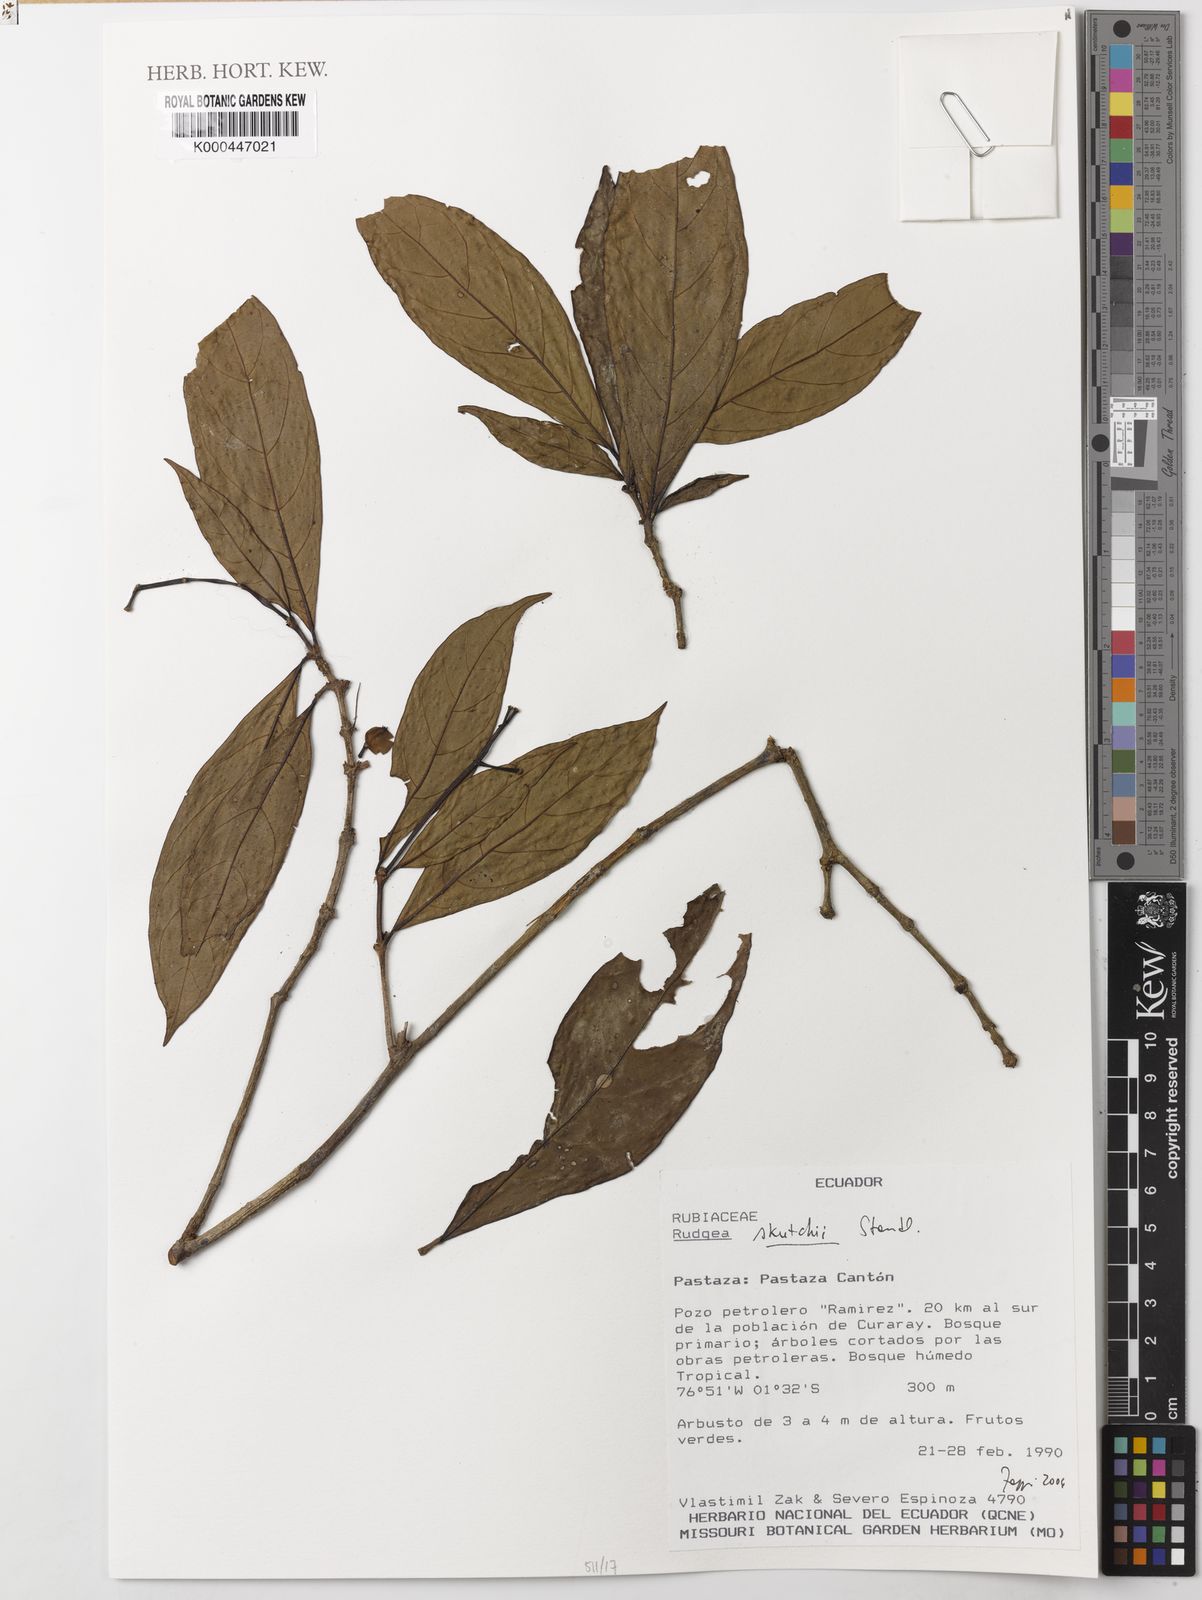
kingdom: Plantae
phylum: Tracheophyta
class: Magnoliopsida
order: Gentianales
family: Rubiaceae
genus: Rudgea
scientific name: Rudgea skutchii
